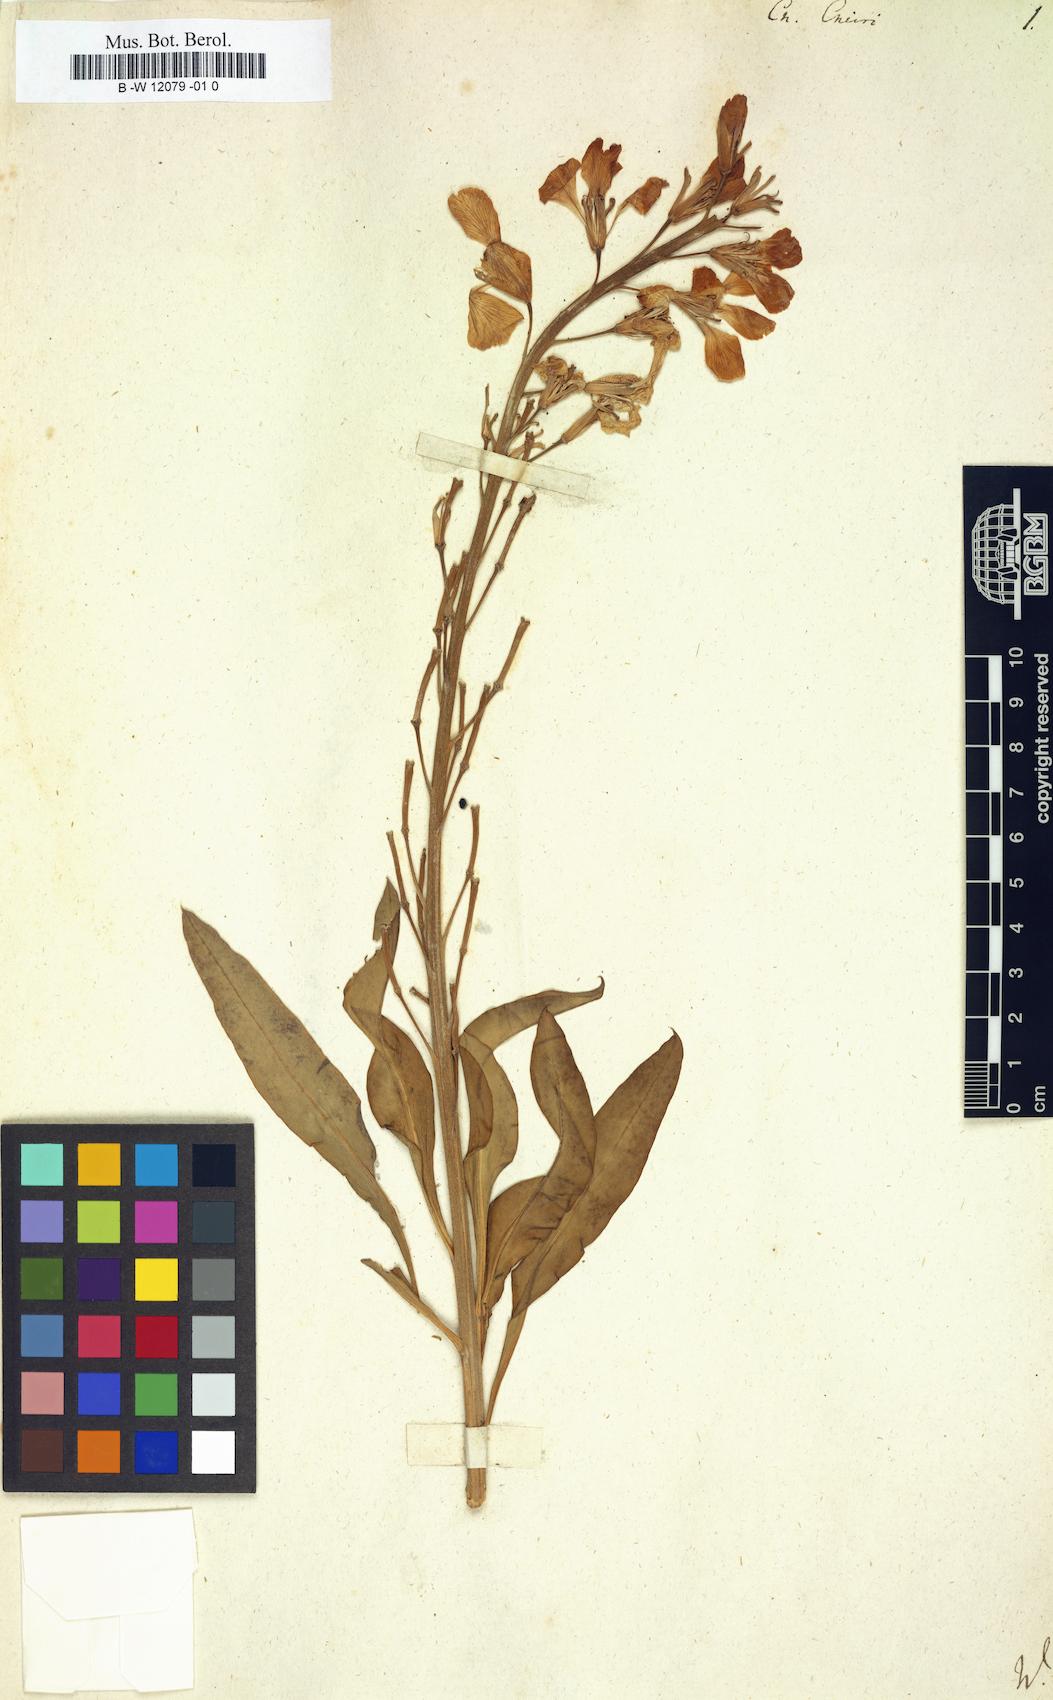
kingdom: Plantae
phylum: Tracheophyta
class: Magnoliopsida
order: Brassicales
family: Brassicaceae
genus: Erysimum
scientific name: Erysimum cheiri
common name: Wallflower
